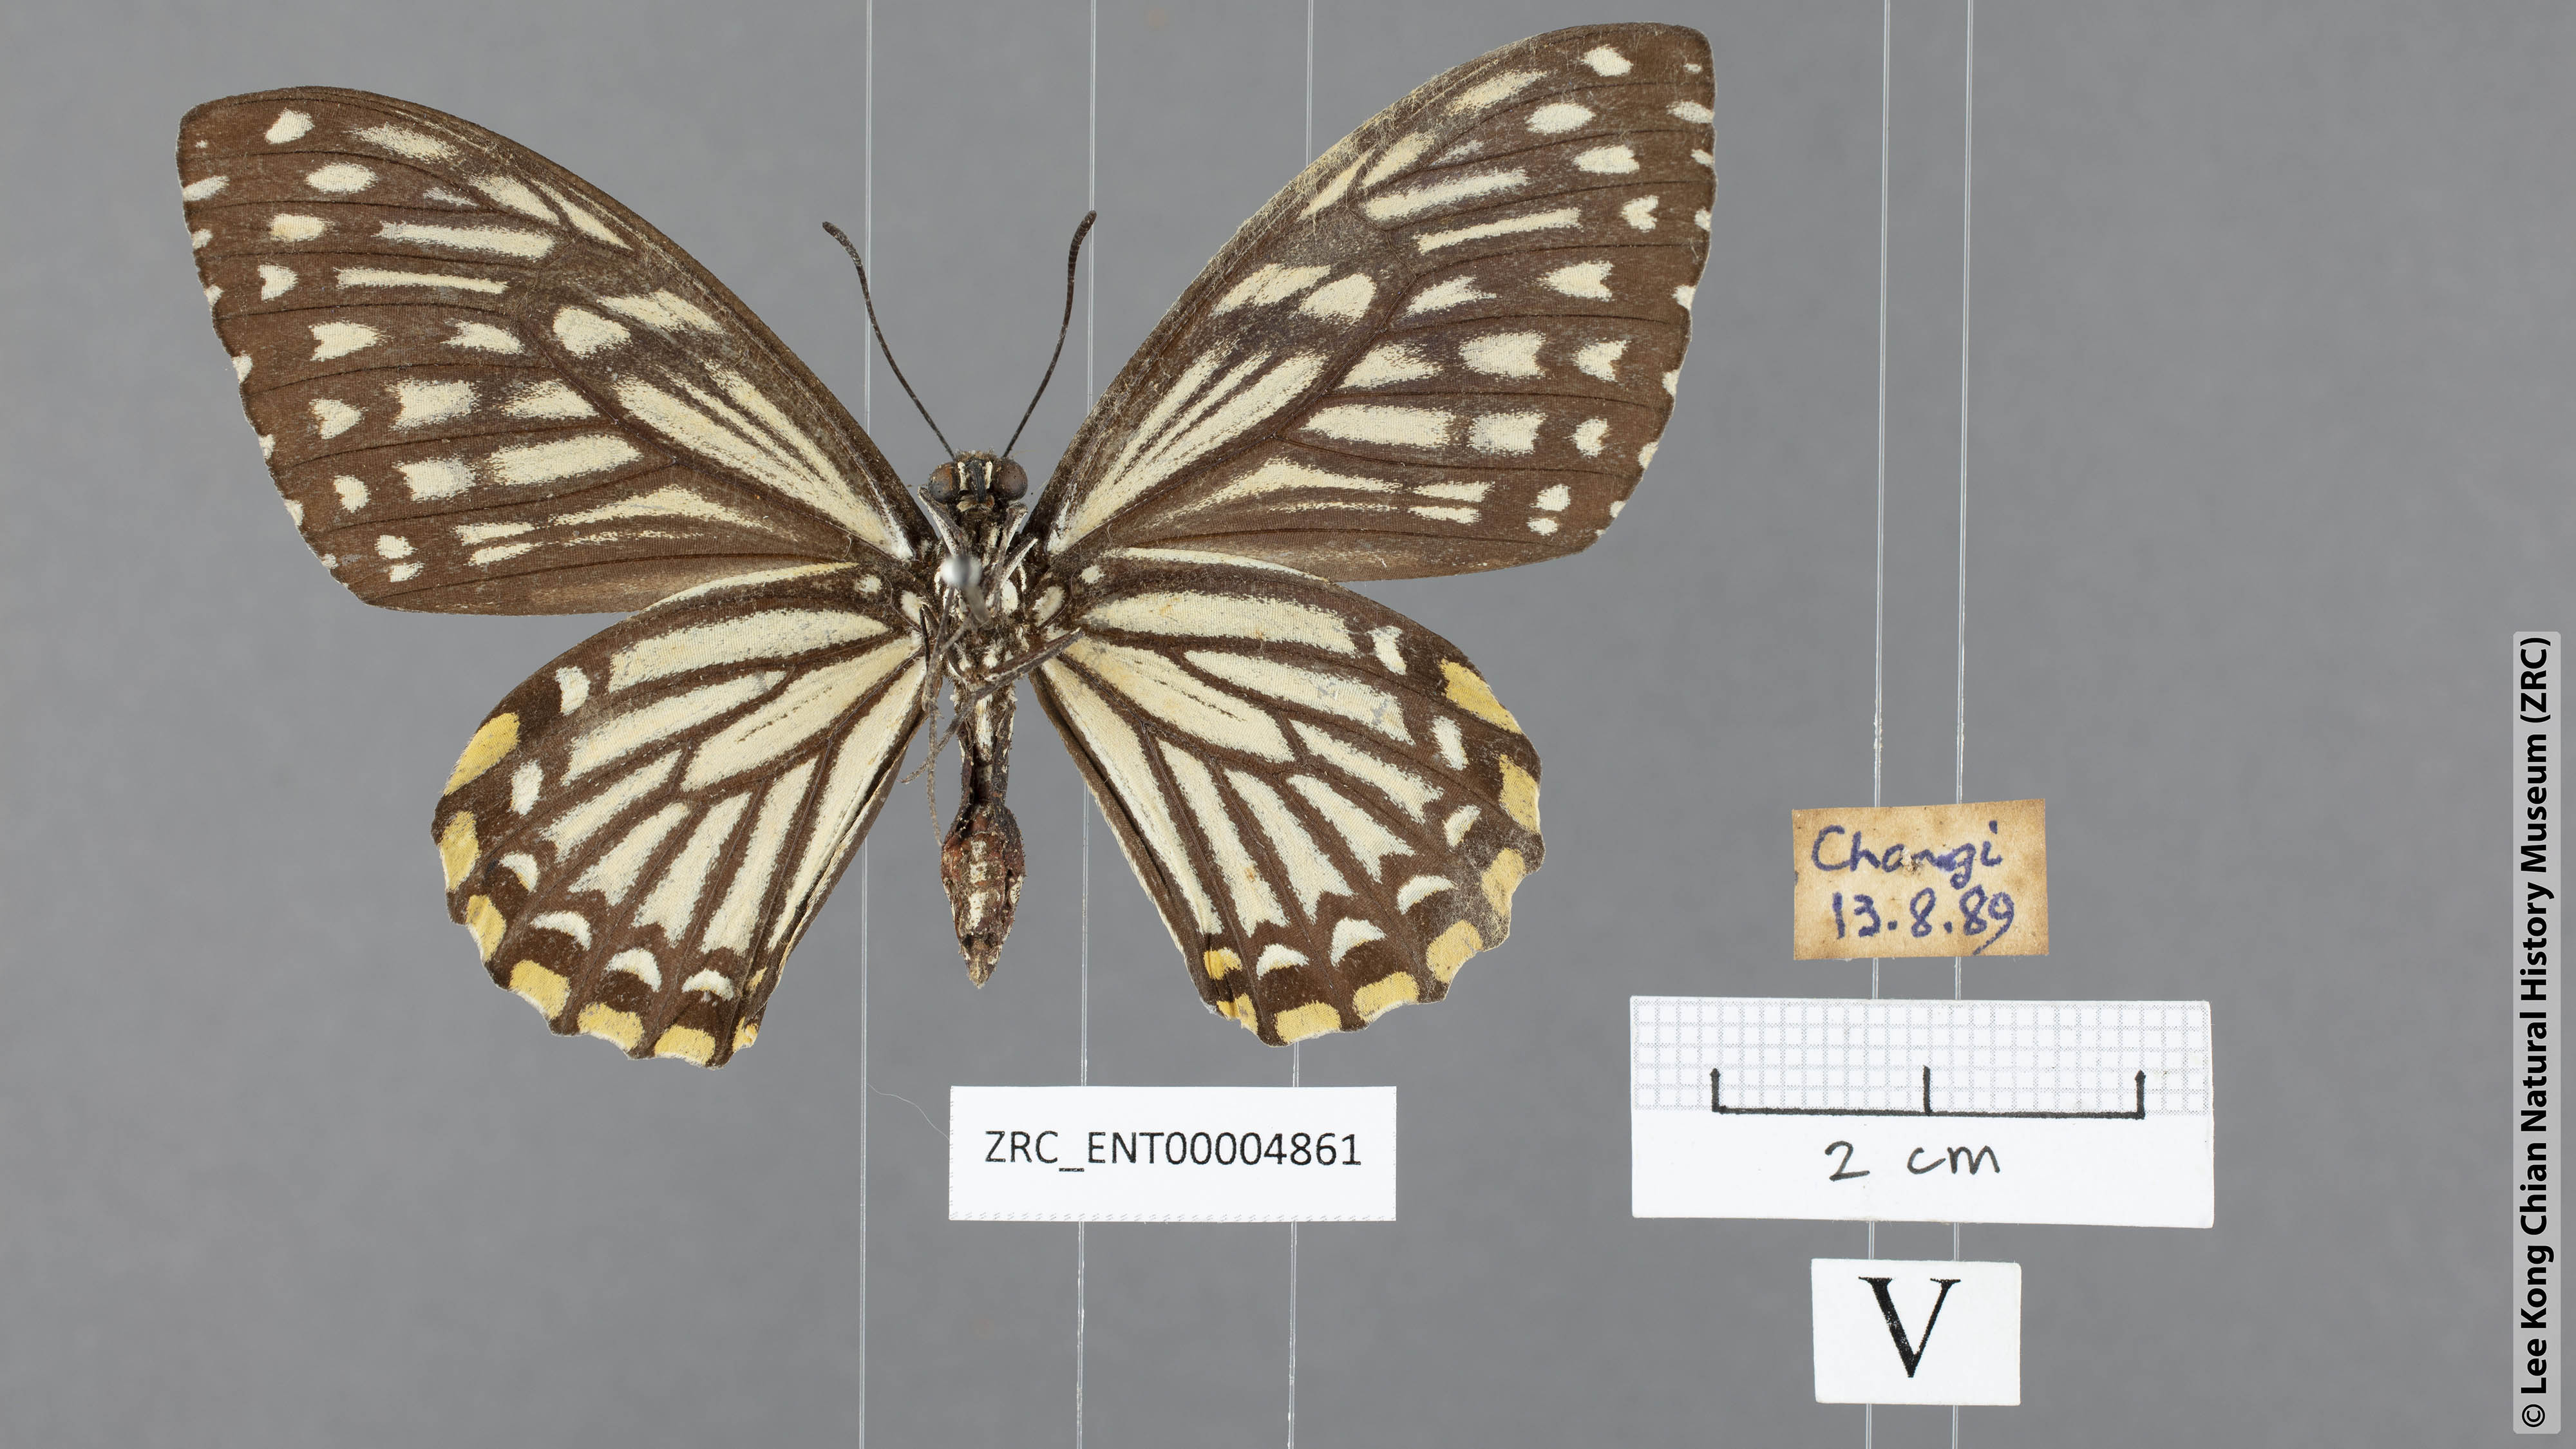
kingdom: Animalia
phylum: Arthropoda
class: Insecta
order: Lepidoptera
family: Papilionidae
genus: Chilasa
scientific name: Chilasa clytia
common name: Common mime
